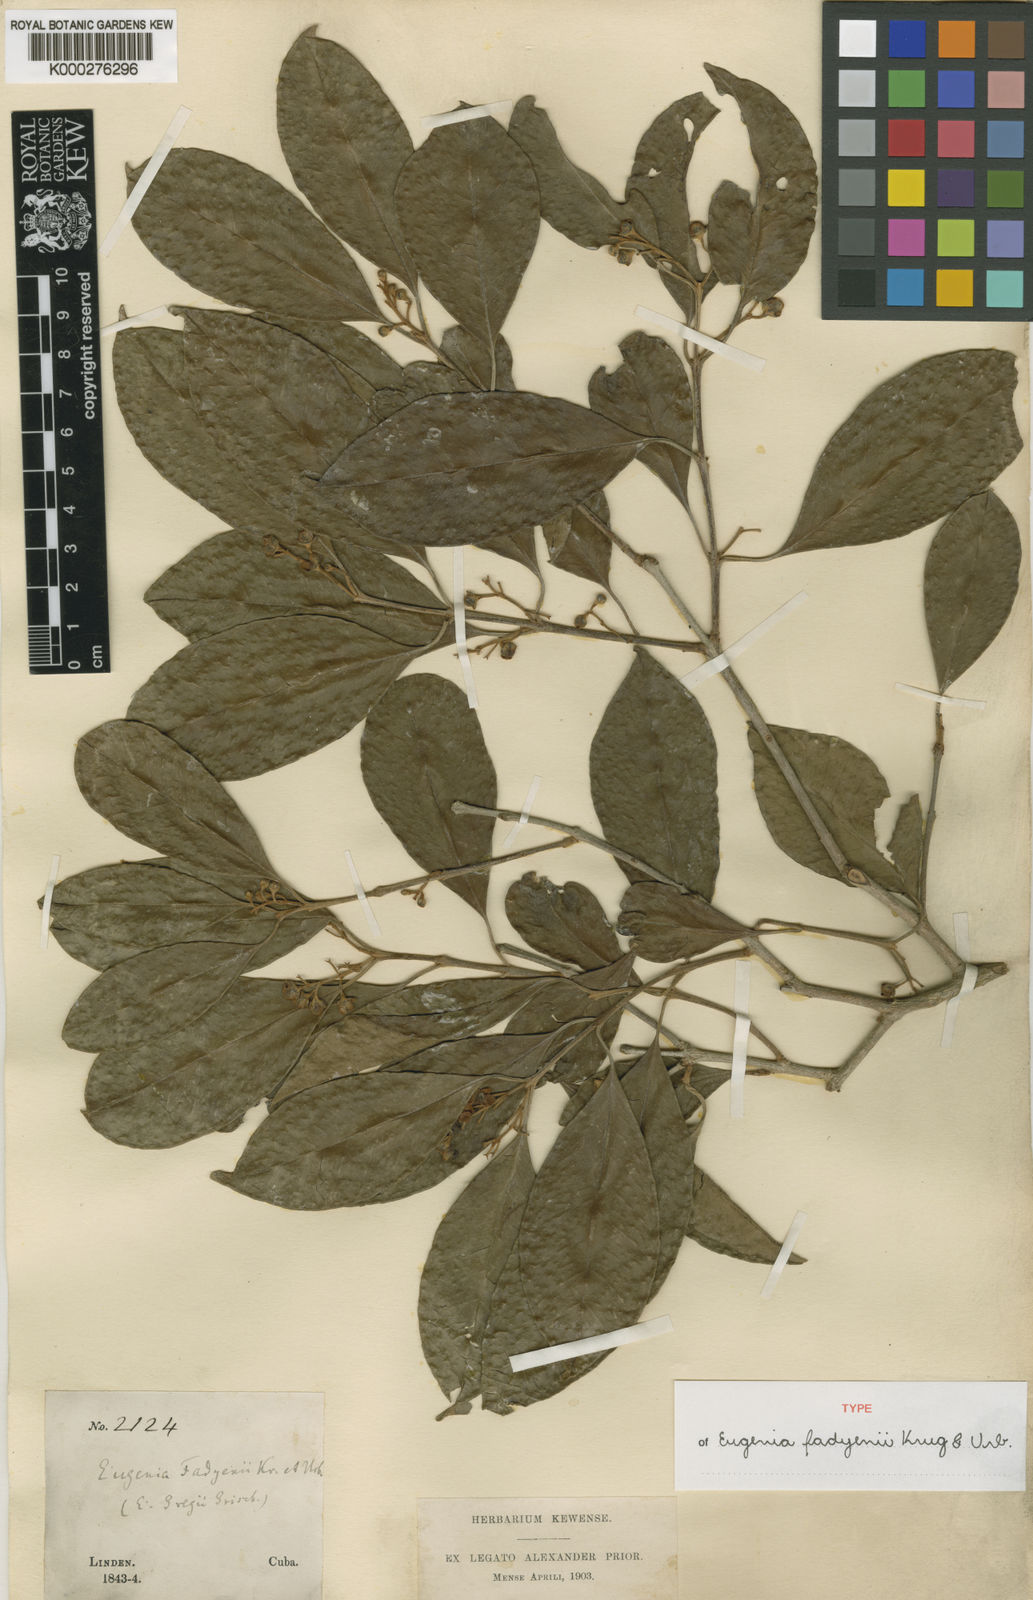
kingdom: Plantae
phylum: Tracheophyta
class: Magnoliopsida
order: Myrtales
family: Myrtaceae
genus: Eugenia
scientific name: Eugenia aeruginea
